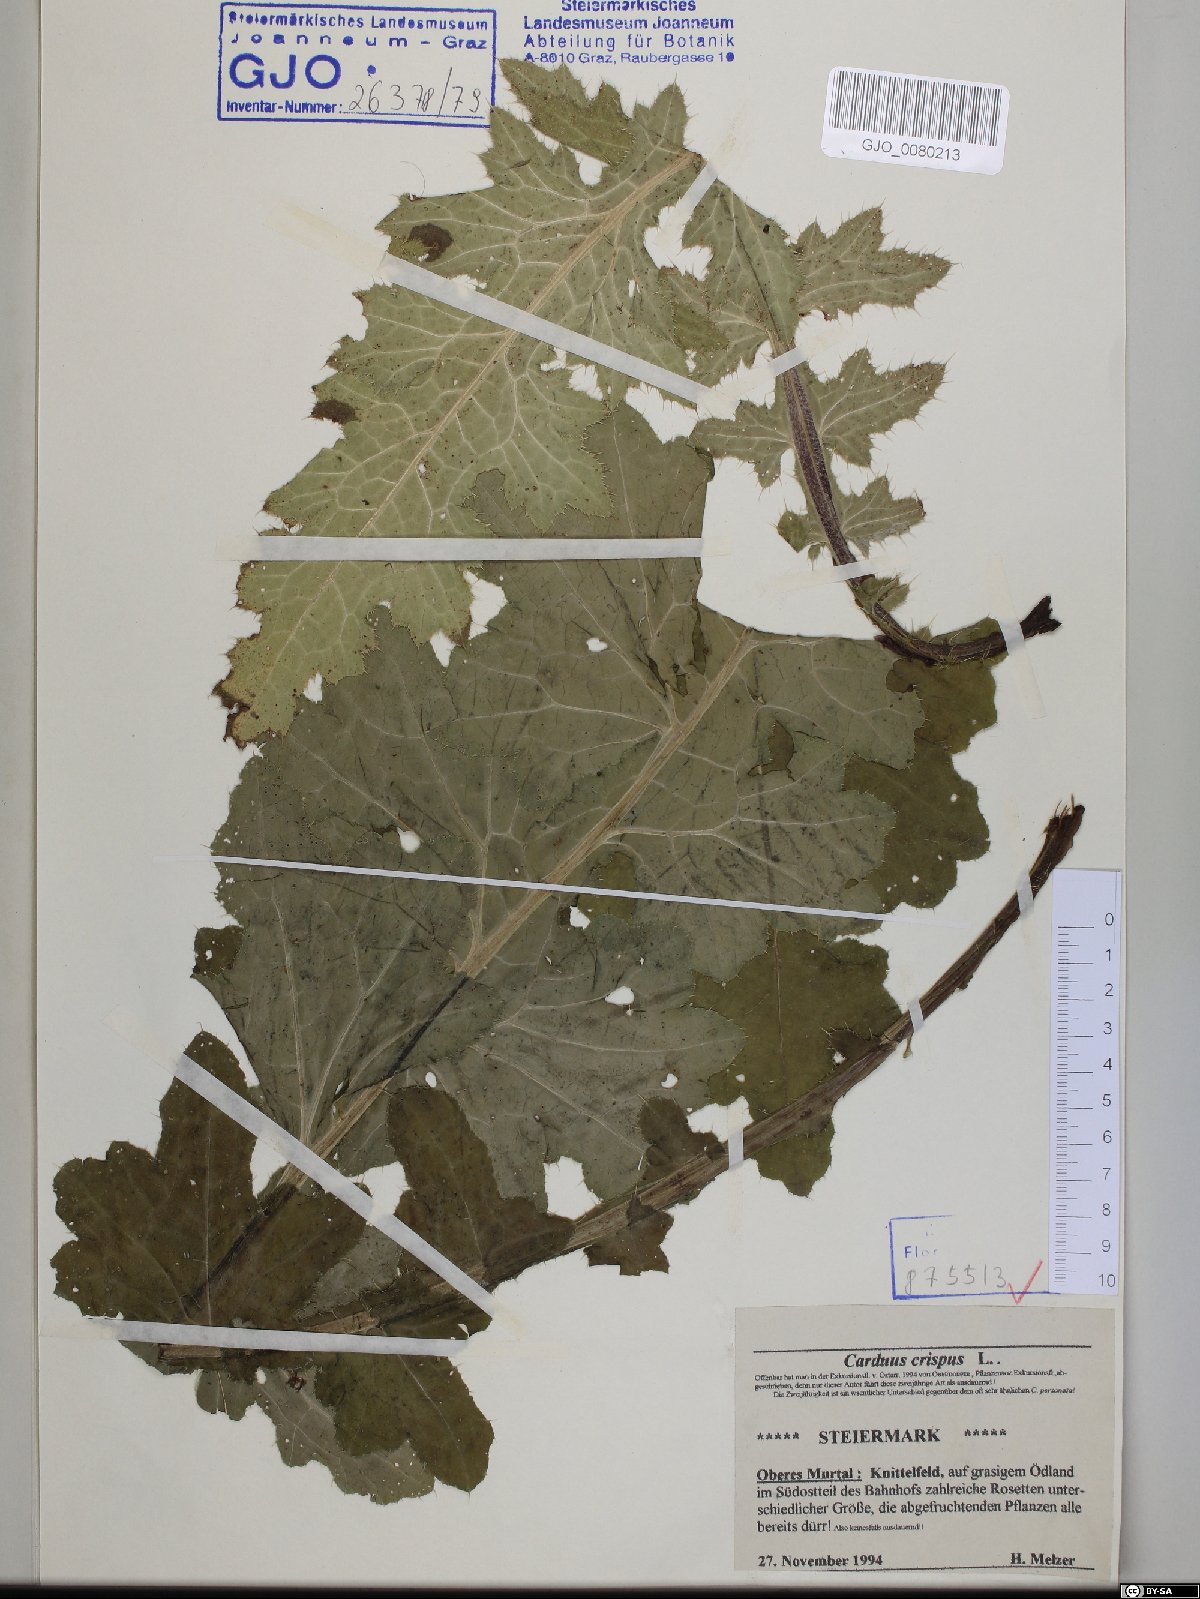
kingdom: Plantae
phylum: Tracheophyta
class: Magnoliopsida
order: Asterales
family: Asteraceae
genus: Carduus
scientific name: Carduus crispus
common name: Welted thistle
